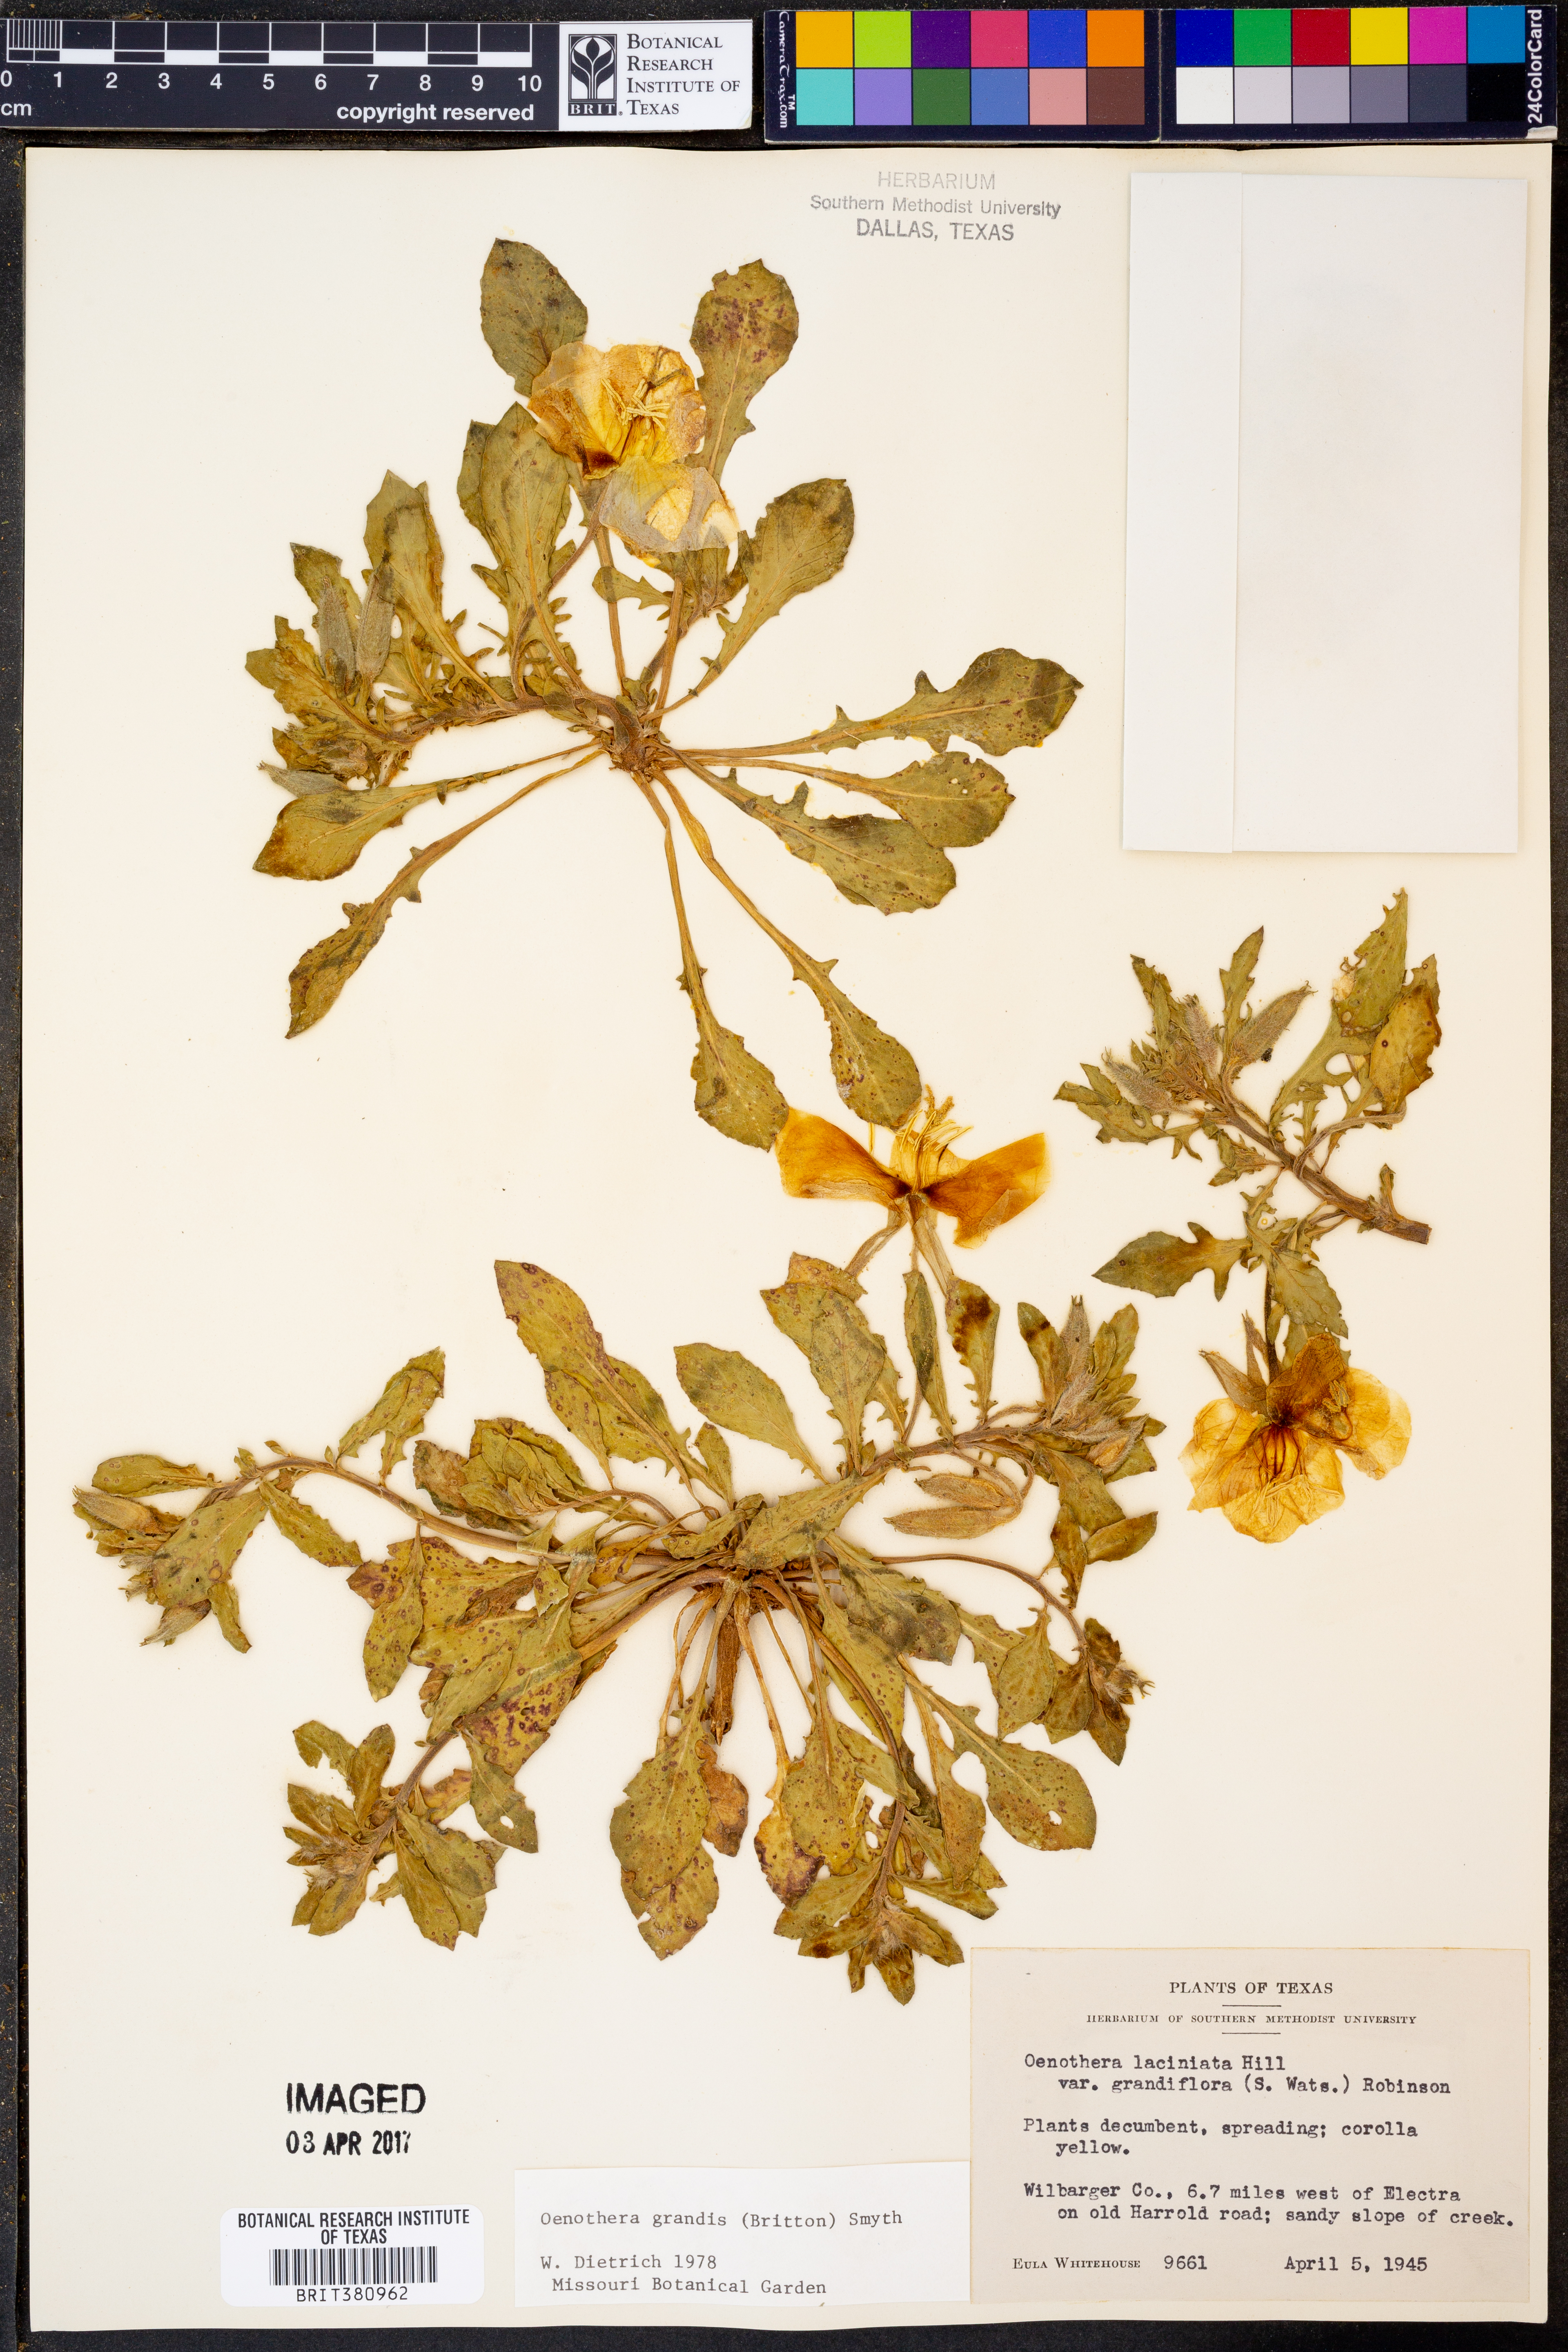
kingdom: Plantae
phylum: Tracheophyta
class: Magnoliopsida
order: Myrtales
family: Onagraceae
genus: Oenothera
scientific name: Oenothera grandis
